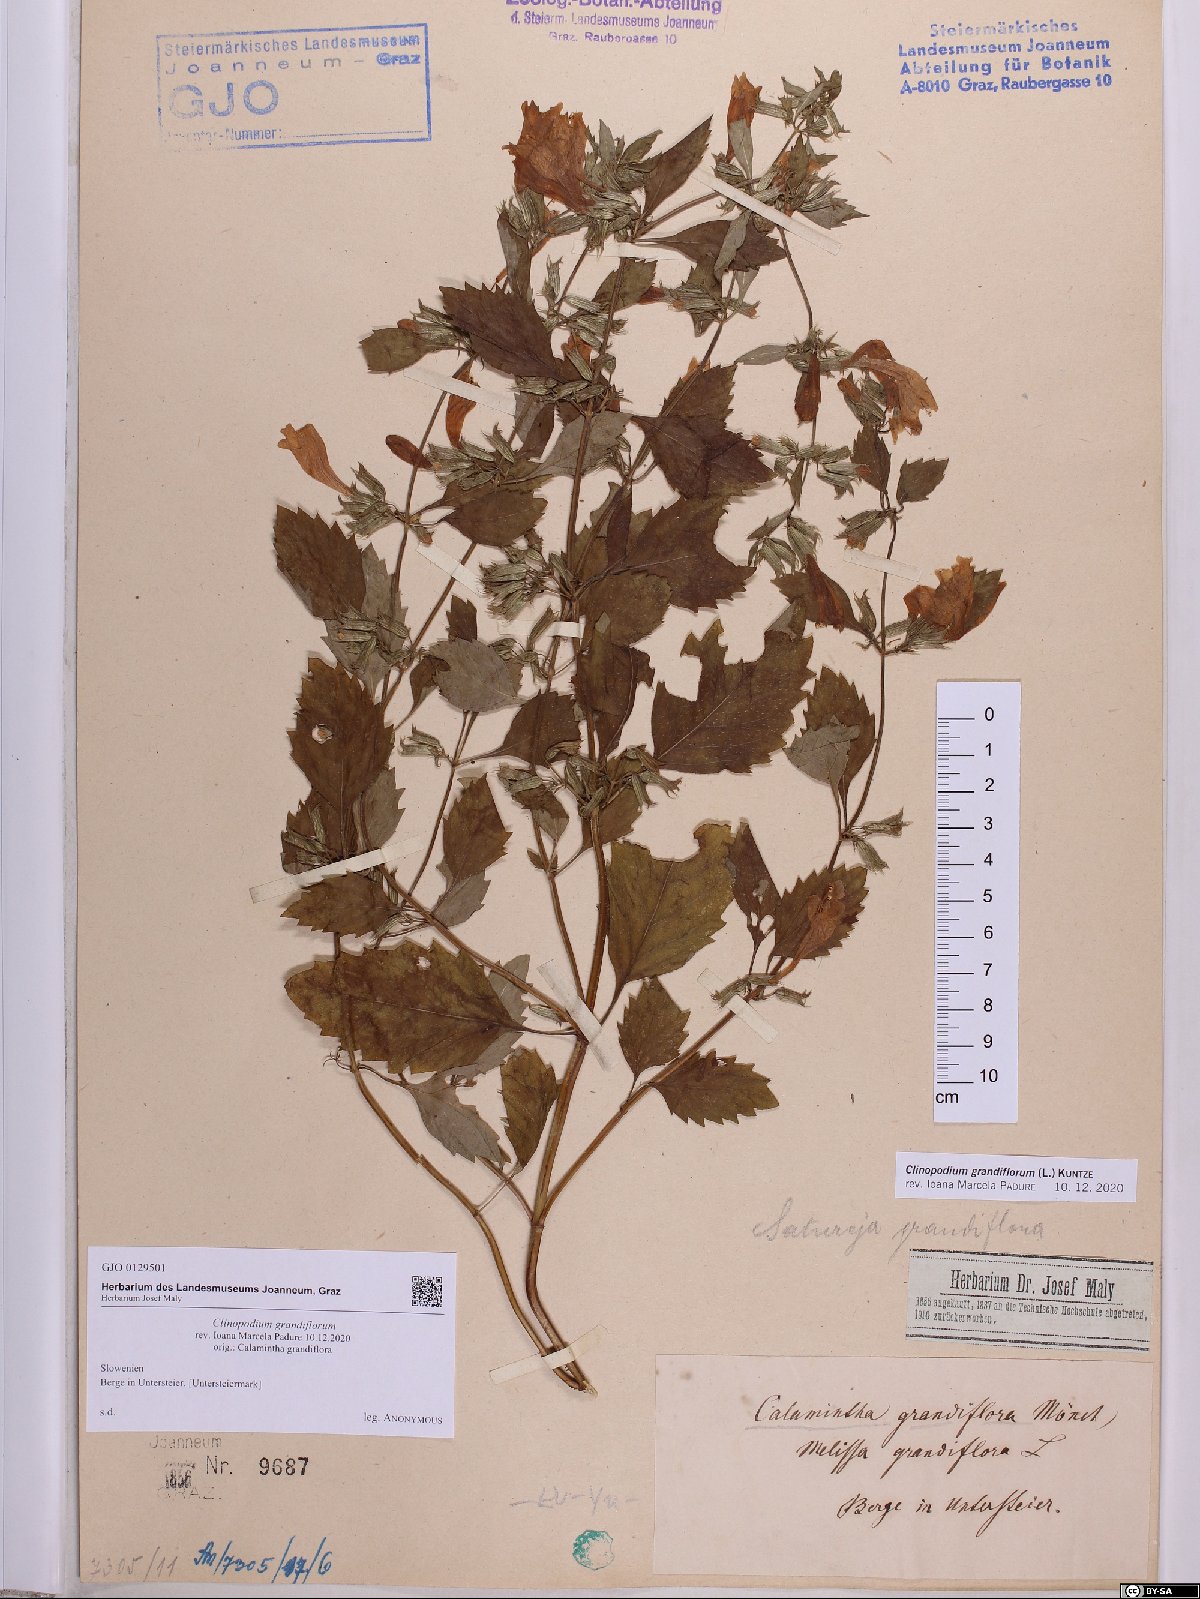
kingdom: Plantae
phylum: Tracheophyta
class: Magnoliopsida
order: Lamiales
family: Lamiaceae
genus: Clinopodium
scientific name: Clinopodium grandiflorum
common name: Greater calamint
